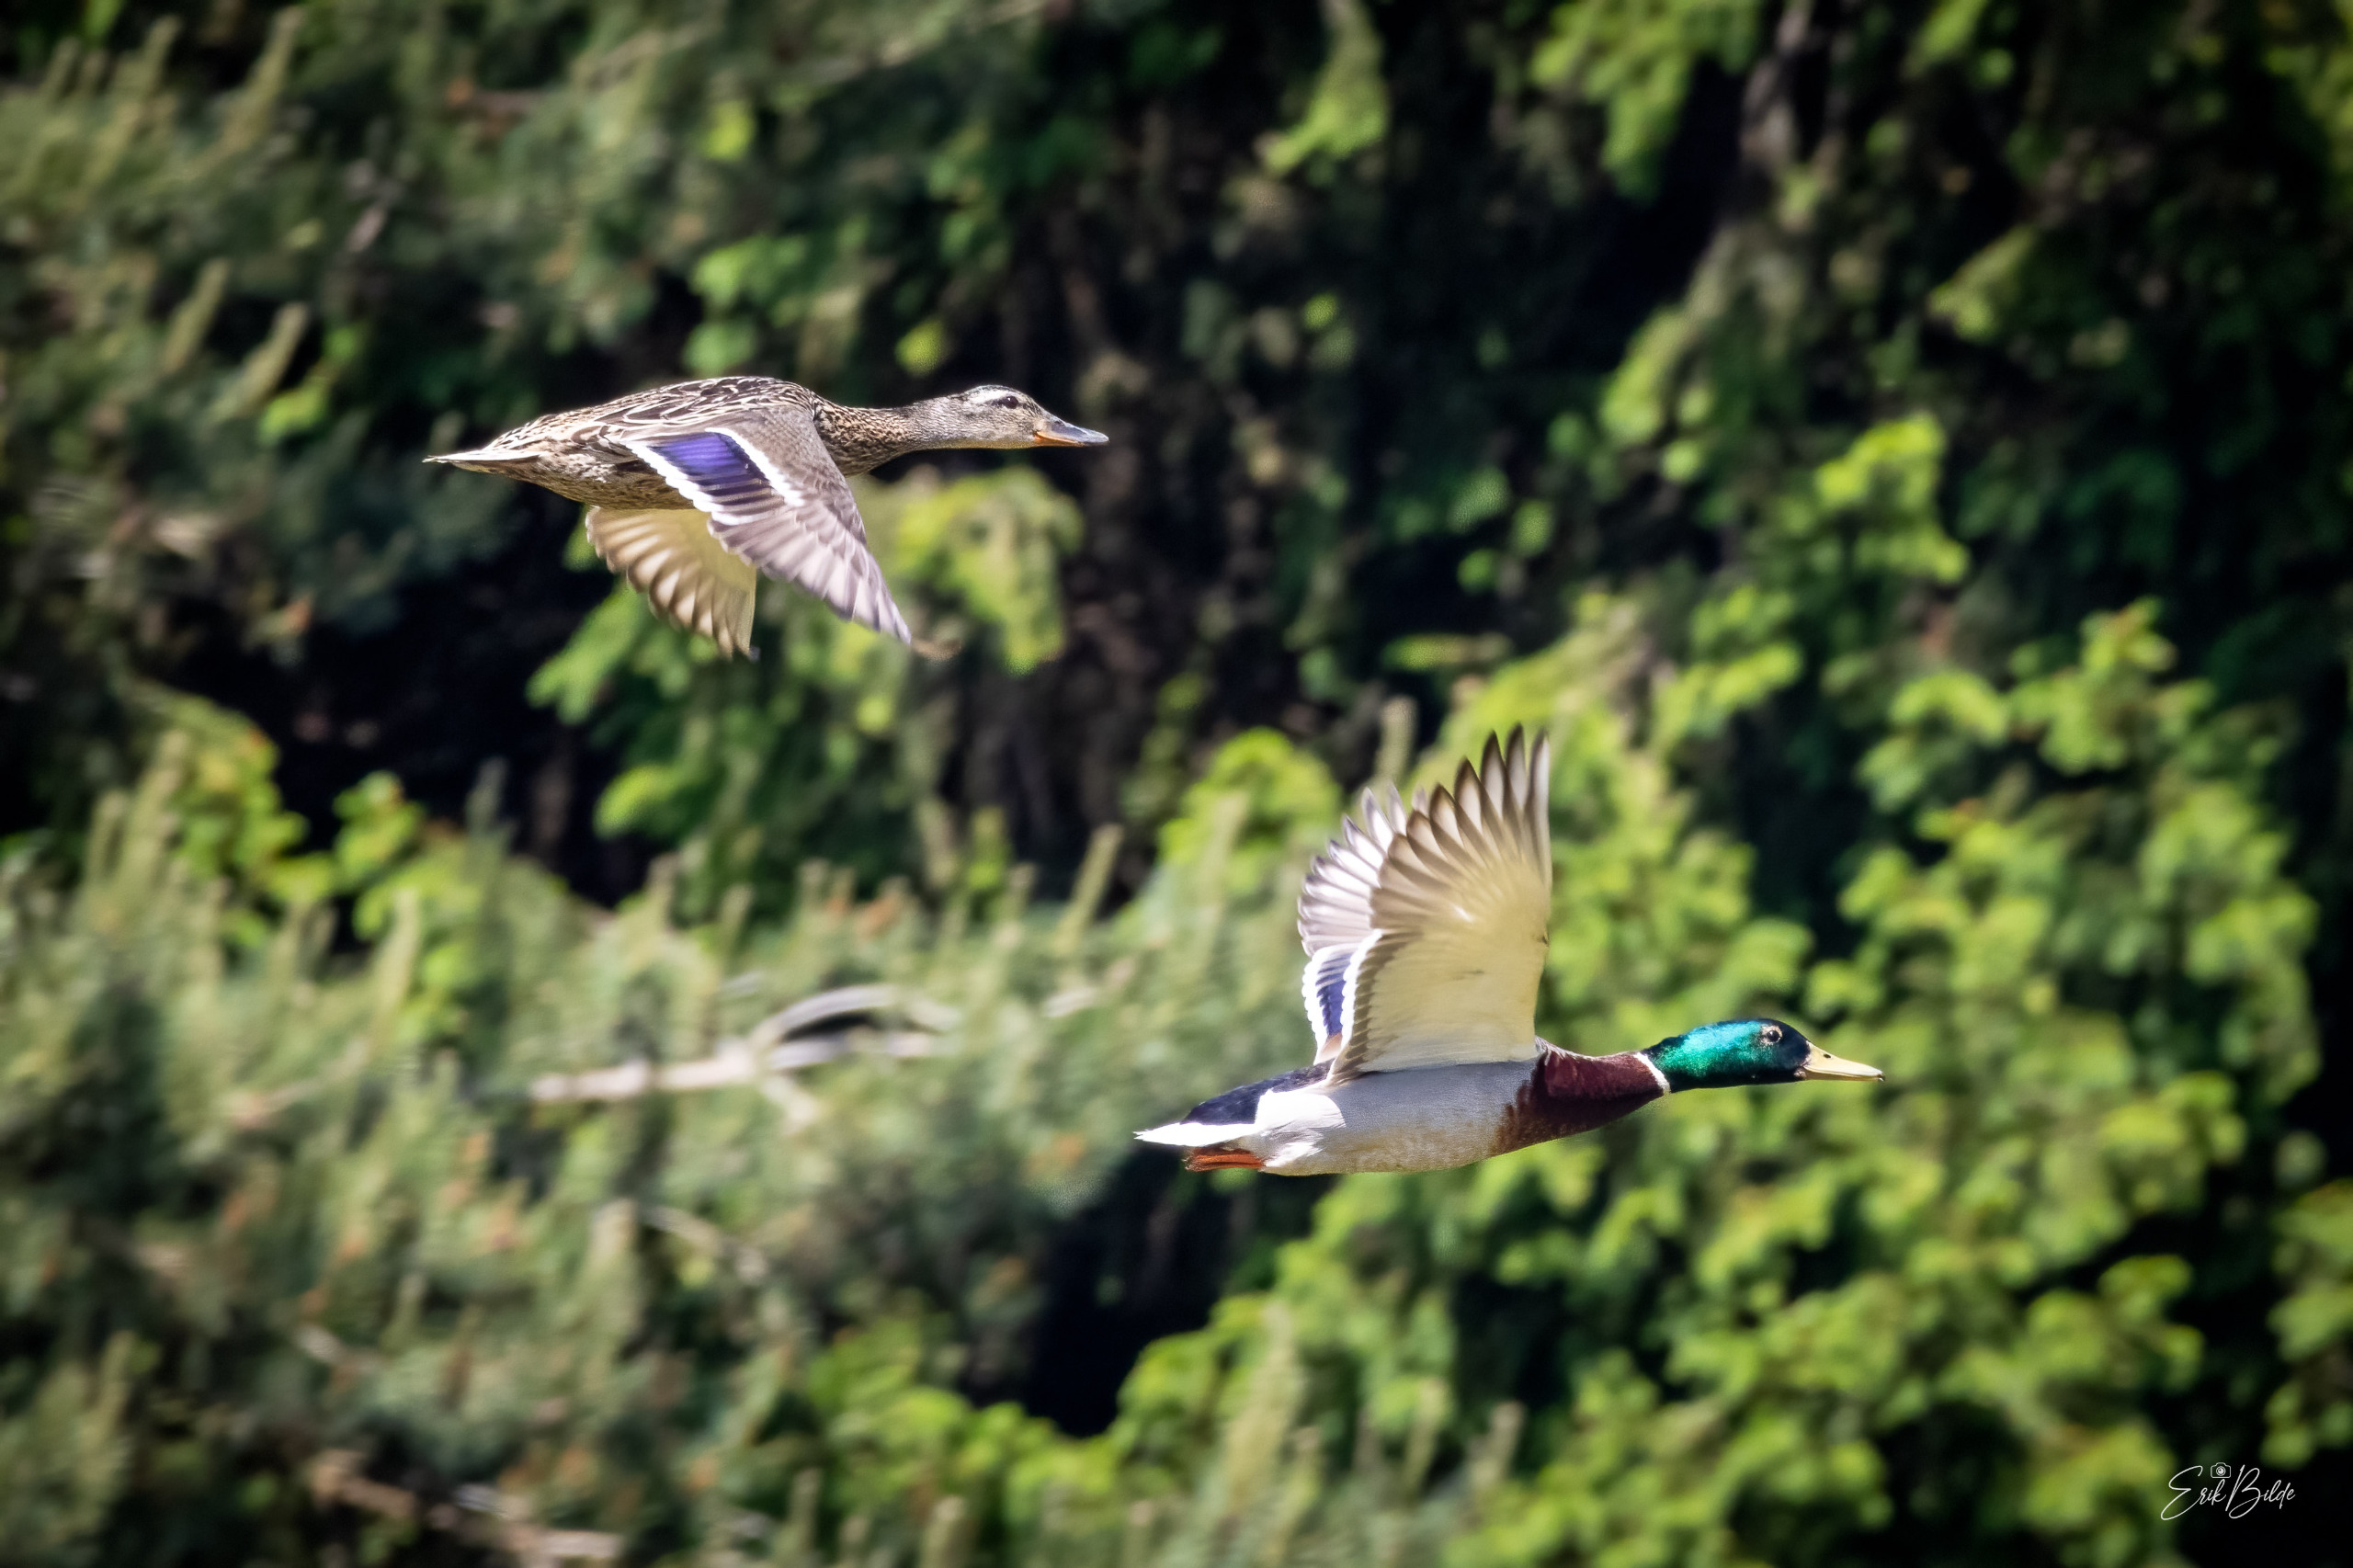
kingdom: Animalia
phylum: Chordata
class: Aves
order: Anseriformes
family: Anatidae
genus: Anas
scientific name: Anas platyrhynchos
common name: Gråand
